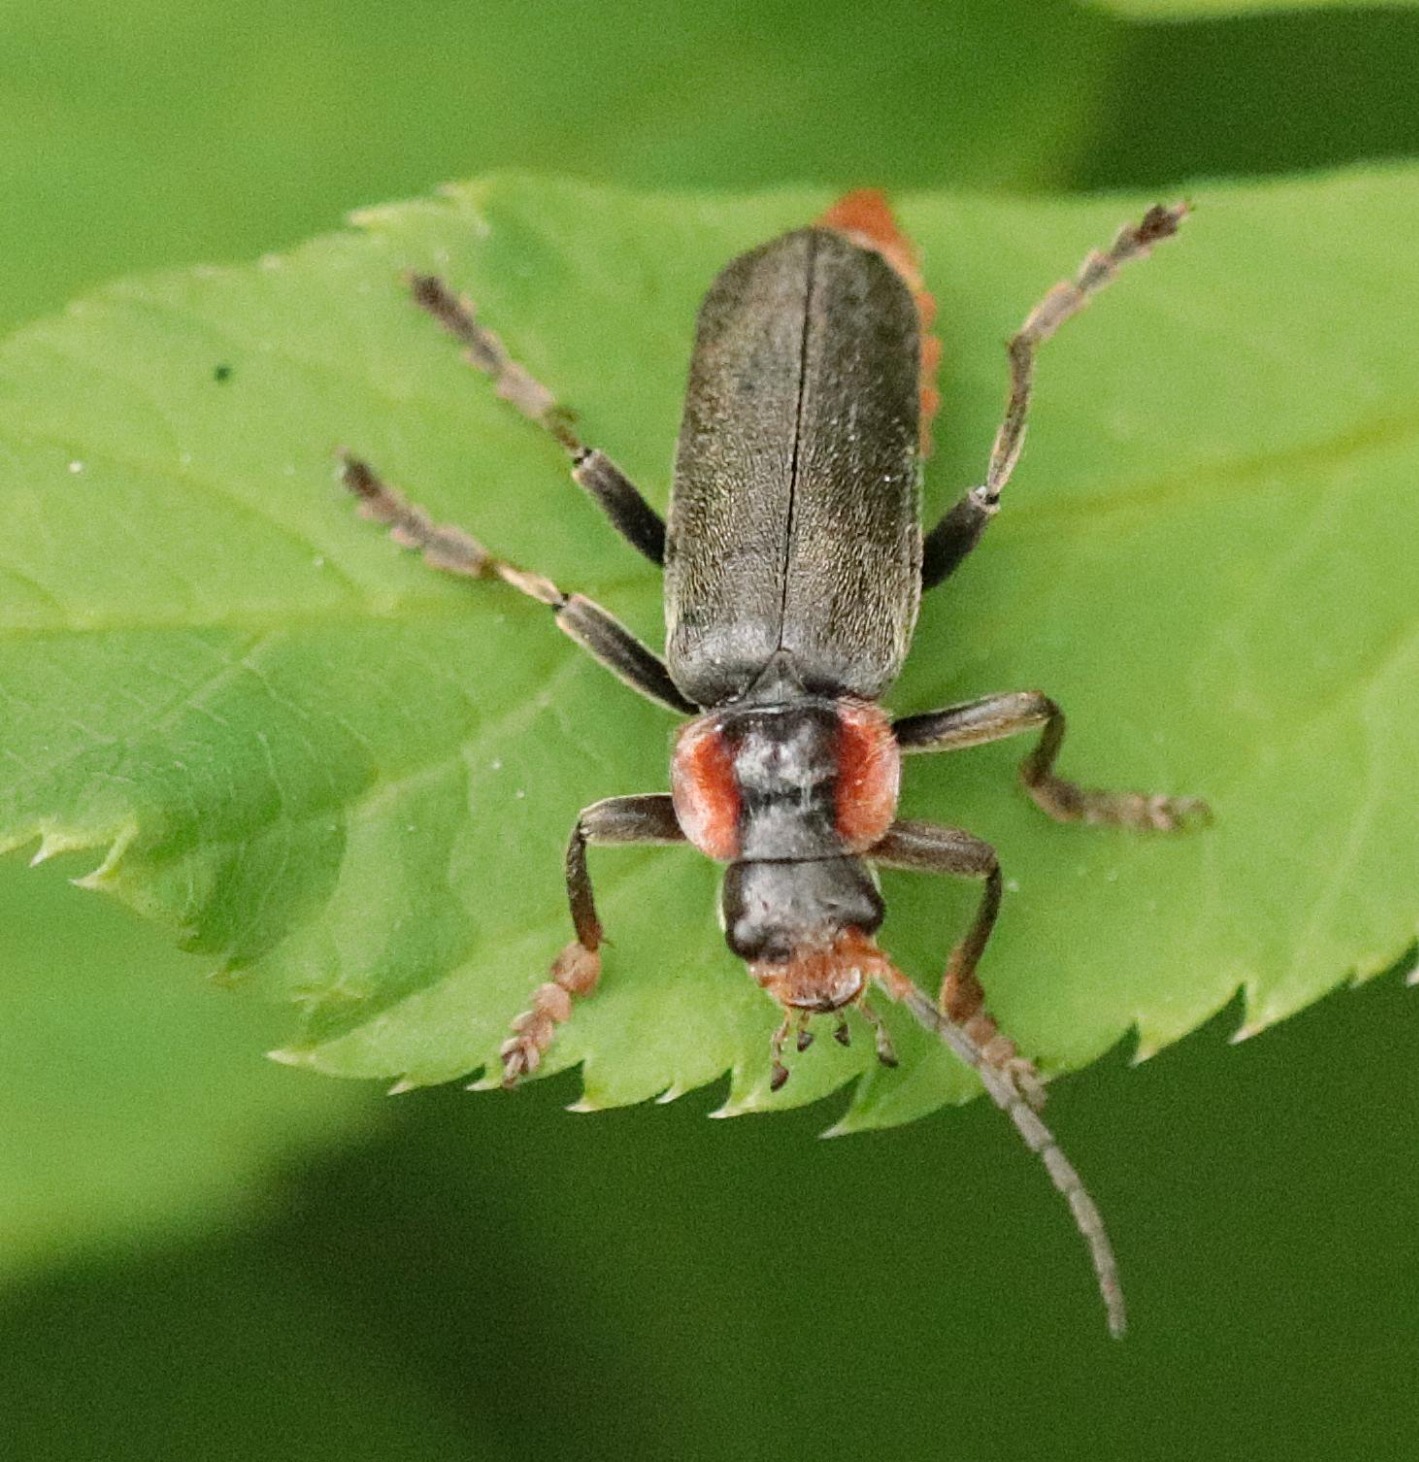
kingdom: Animalia
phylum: Arthropoda
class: Insecta
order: Coleoptera
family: Cantharidae
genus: Cantharis
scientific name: Cantharis fusca
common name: Stor blødvinge
